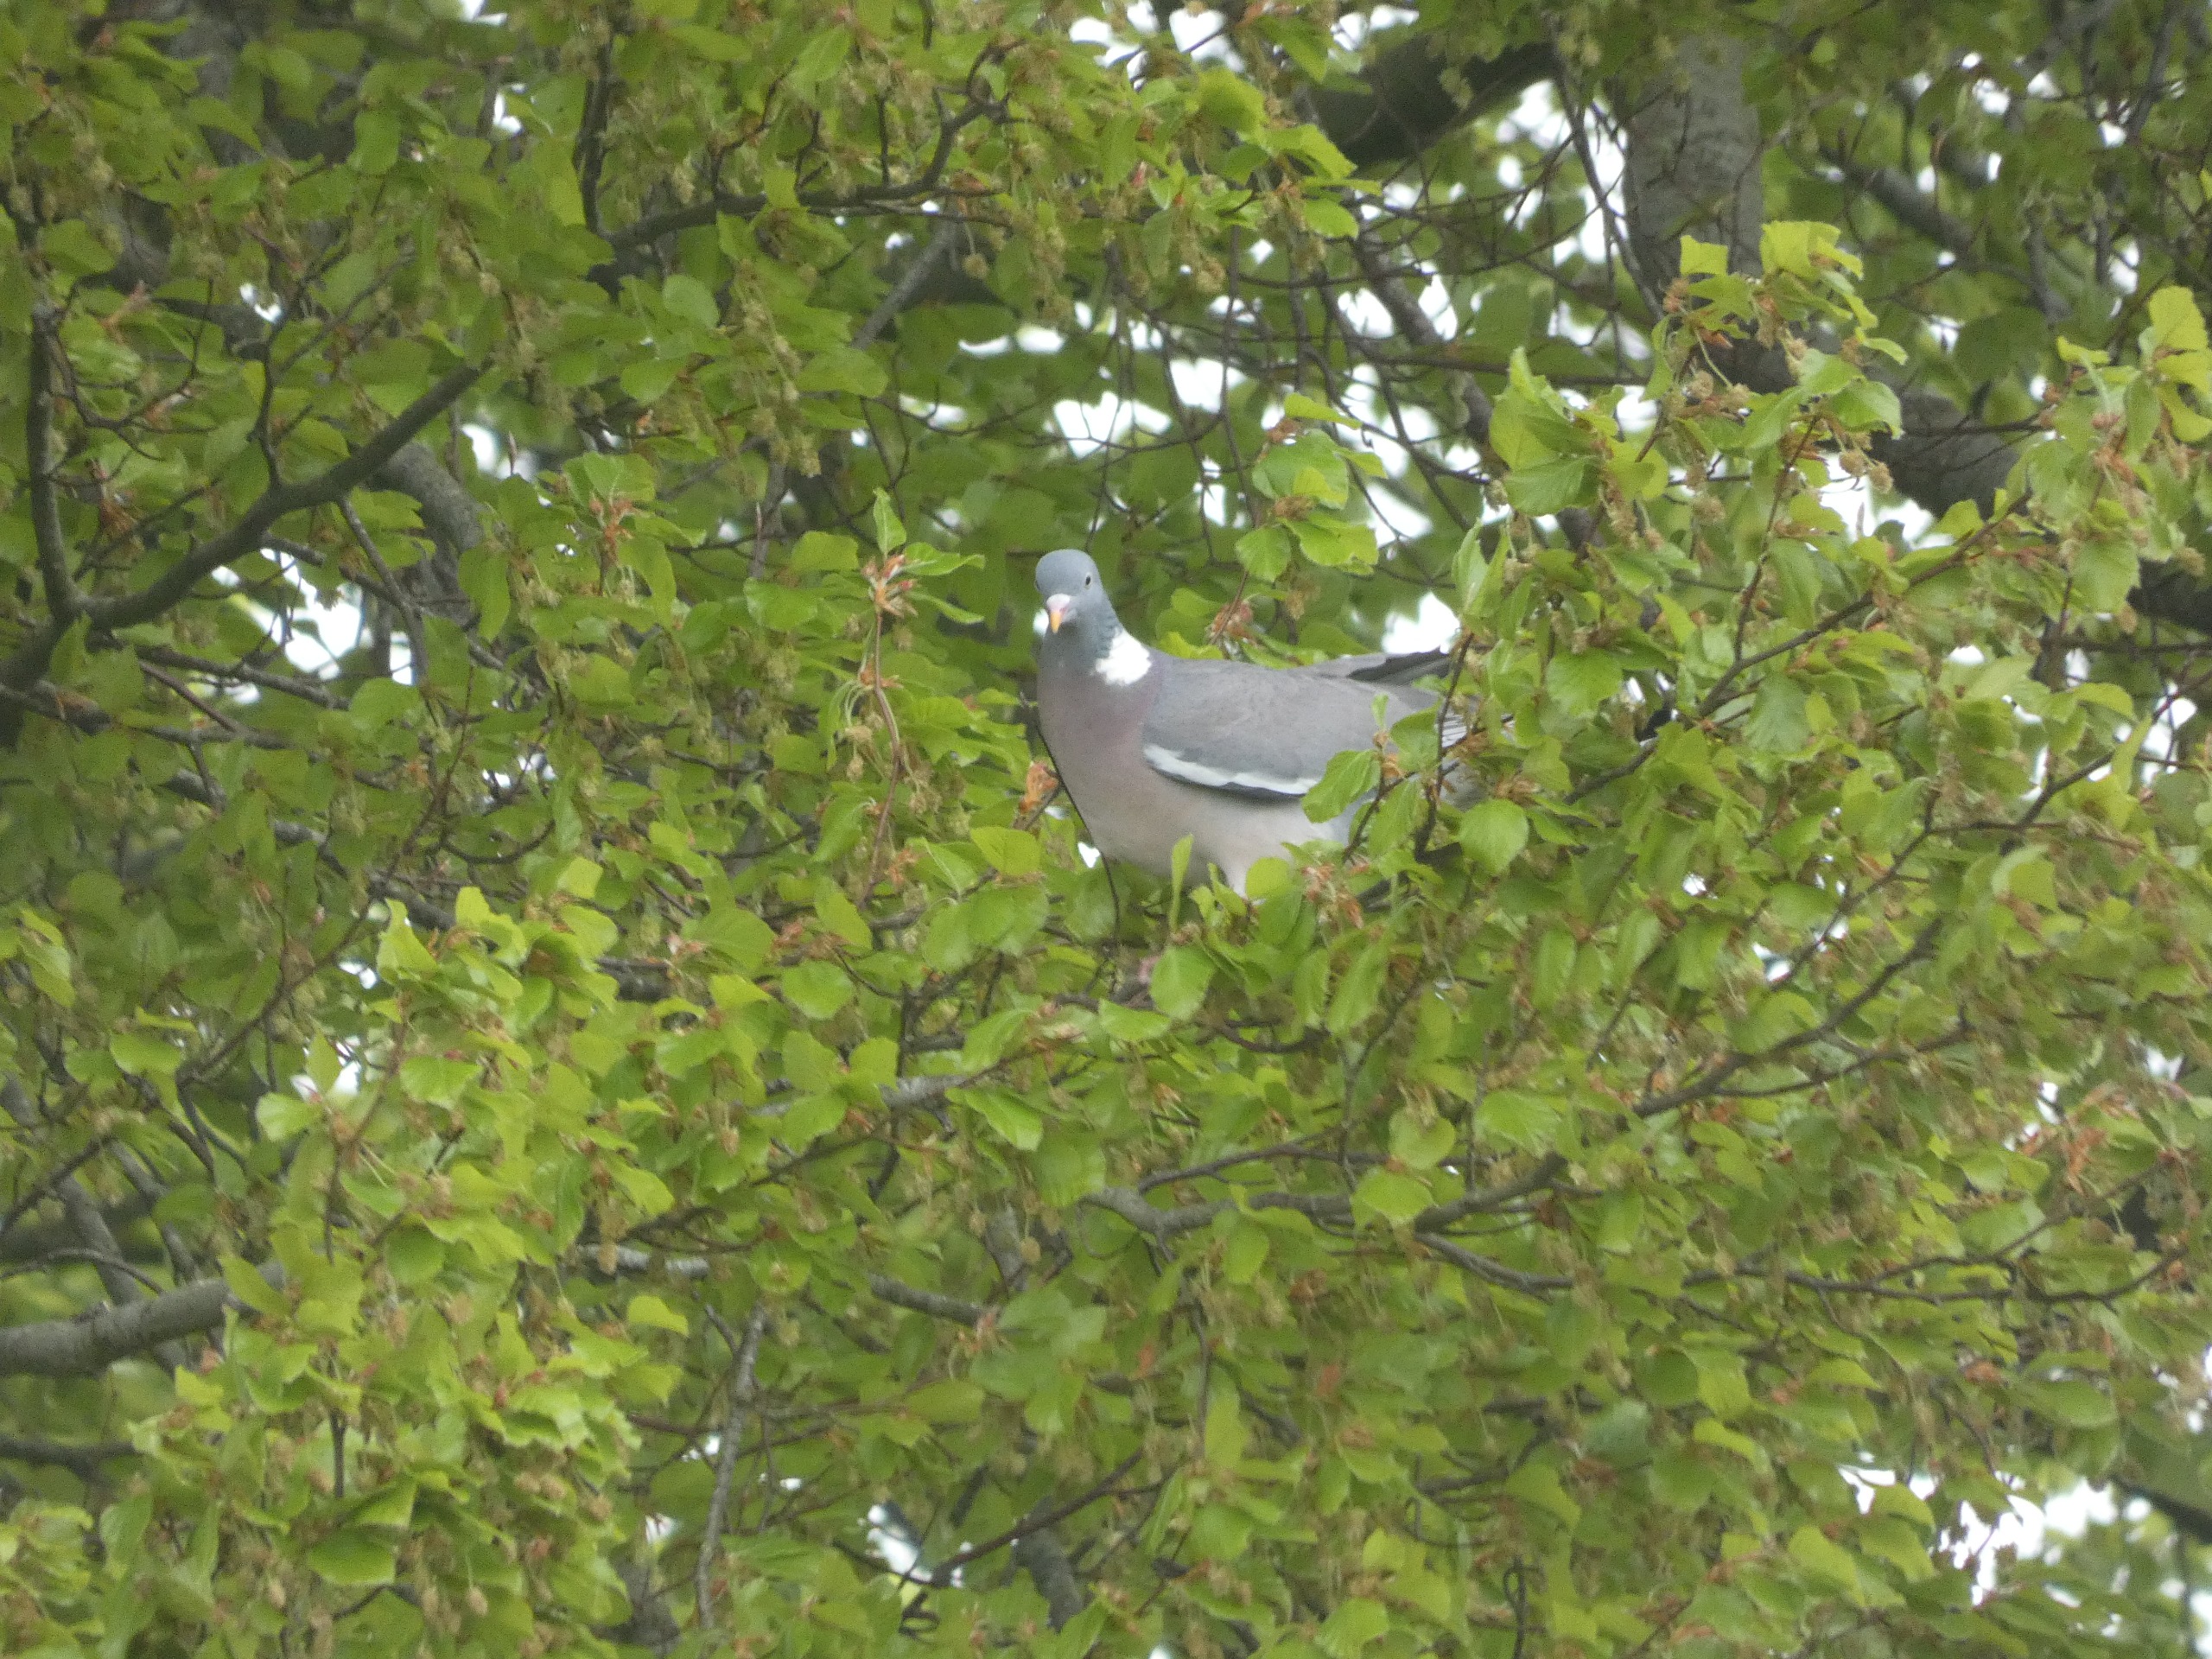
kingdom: Animalia
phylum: Chordata
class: Aves
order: Columbiformes
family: Columbidae
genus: Columba
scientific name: Columba palumbus
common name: Ringdue
